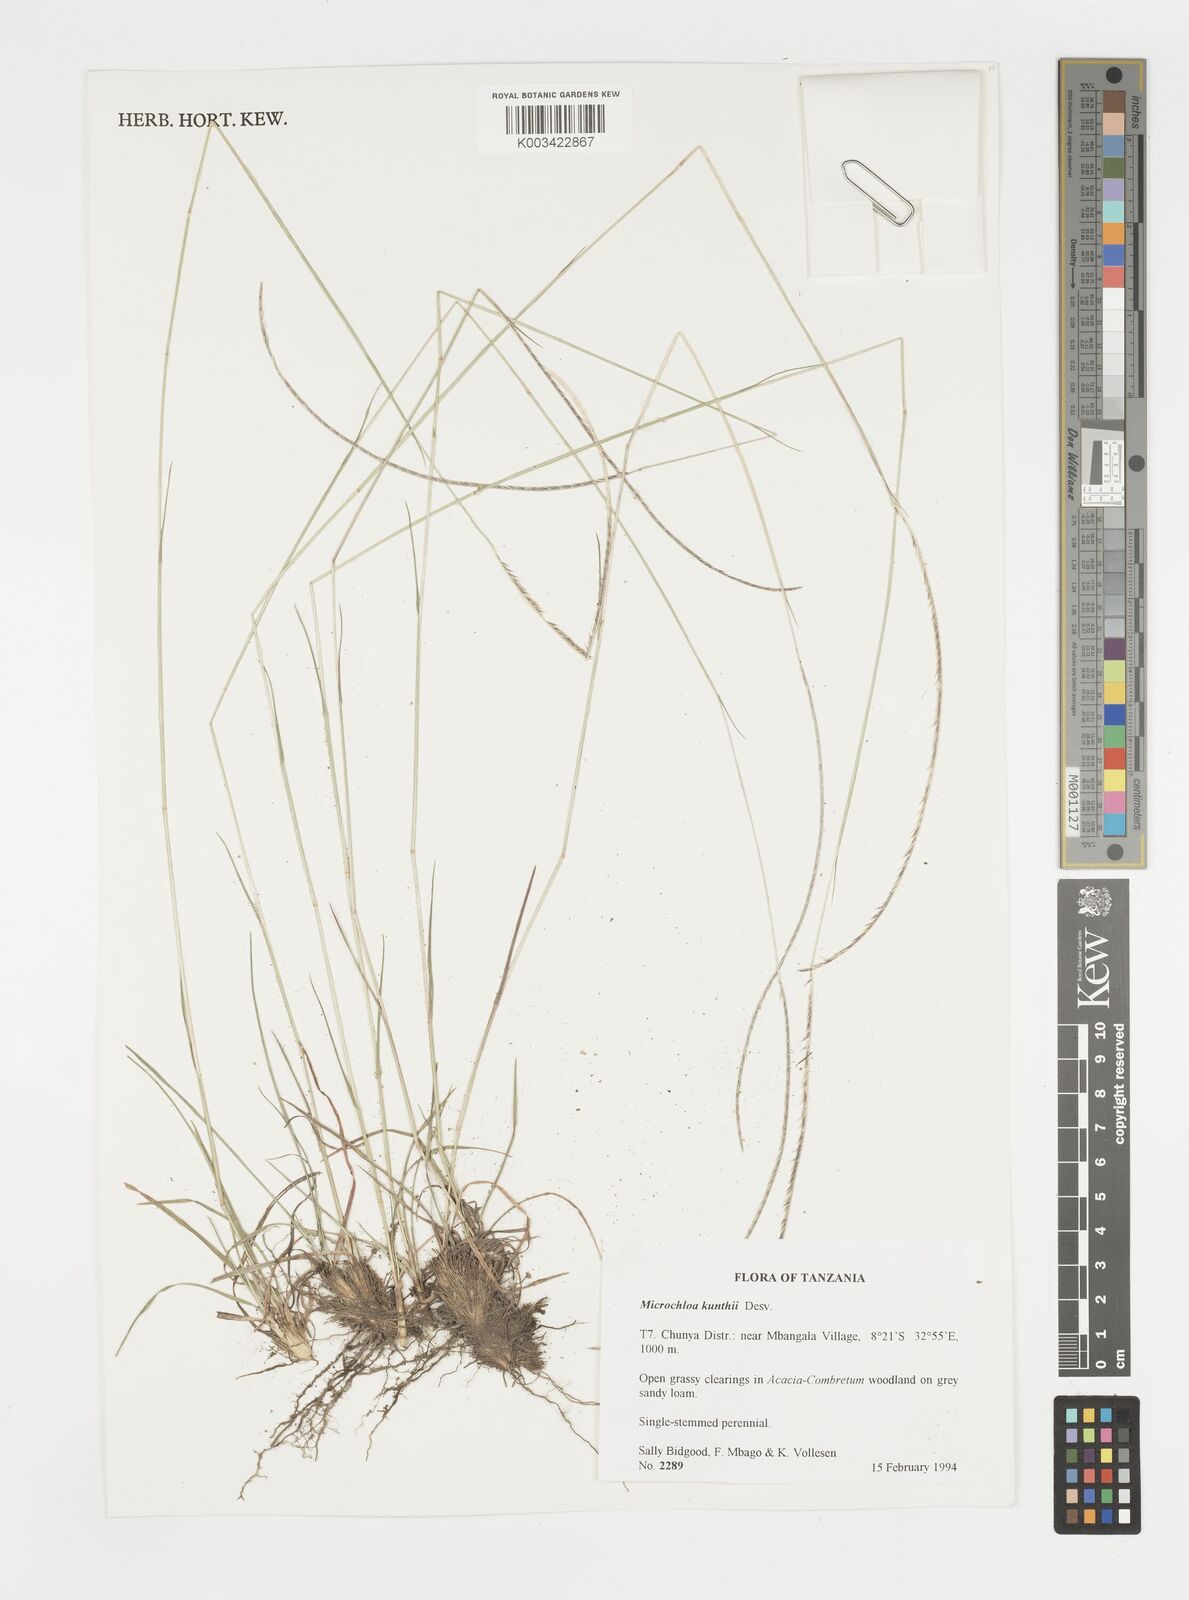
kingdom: Plantae
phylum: Tracheophyta
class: Liliopsida
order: Poales
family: Poaceae
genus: Microchloa
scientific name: Microchloa kunthii
